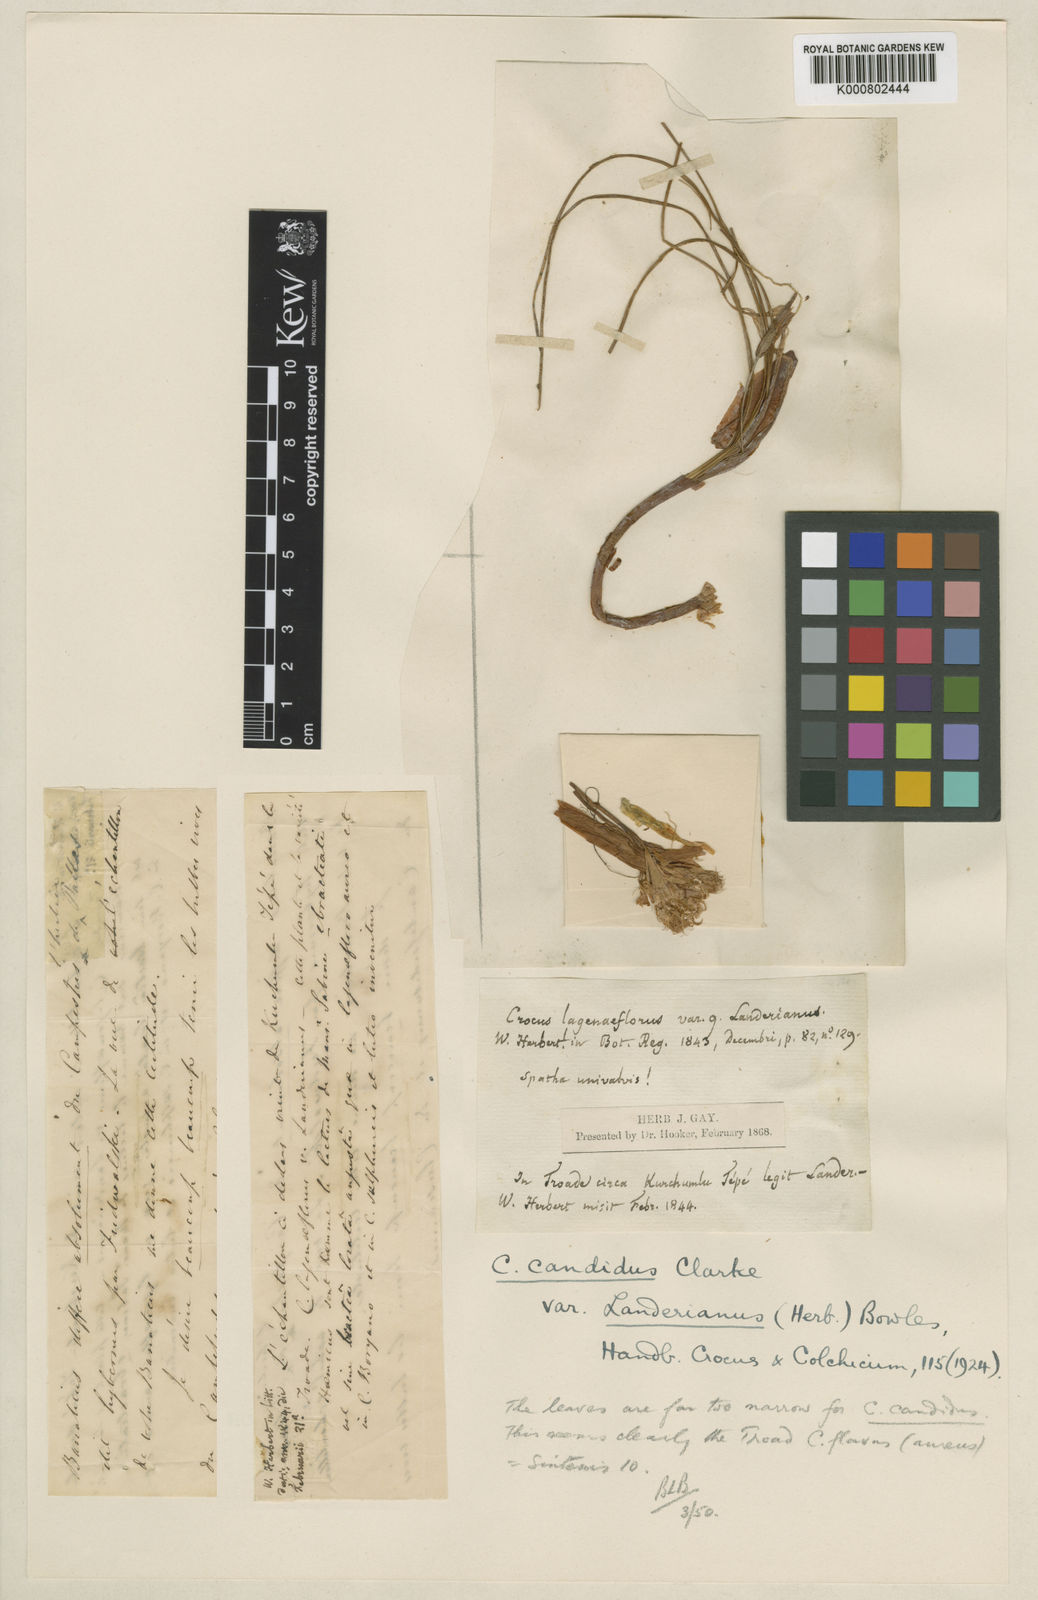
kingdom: Plantae
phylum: Tracheophyta
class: Liliopsida
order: Asparagales
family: Iridaceae
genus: Crocus
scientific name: Crocus
